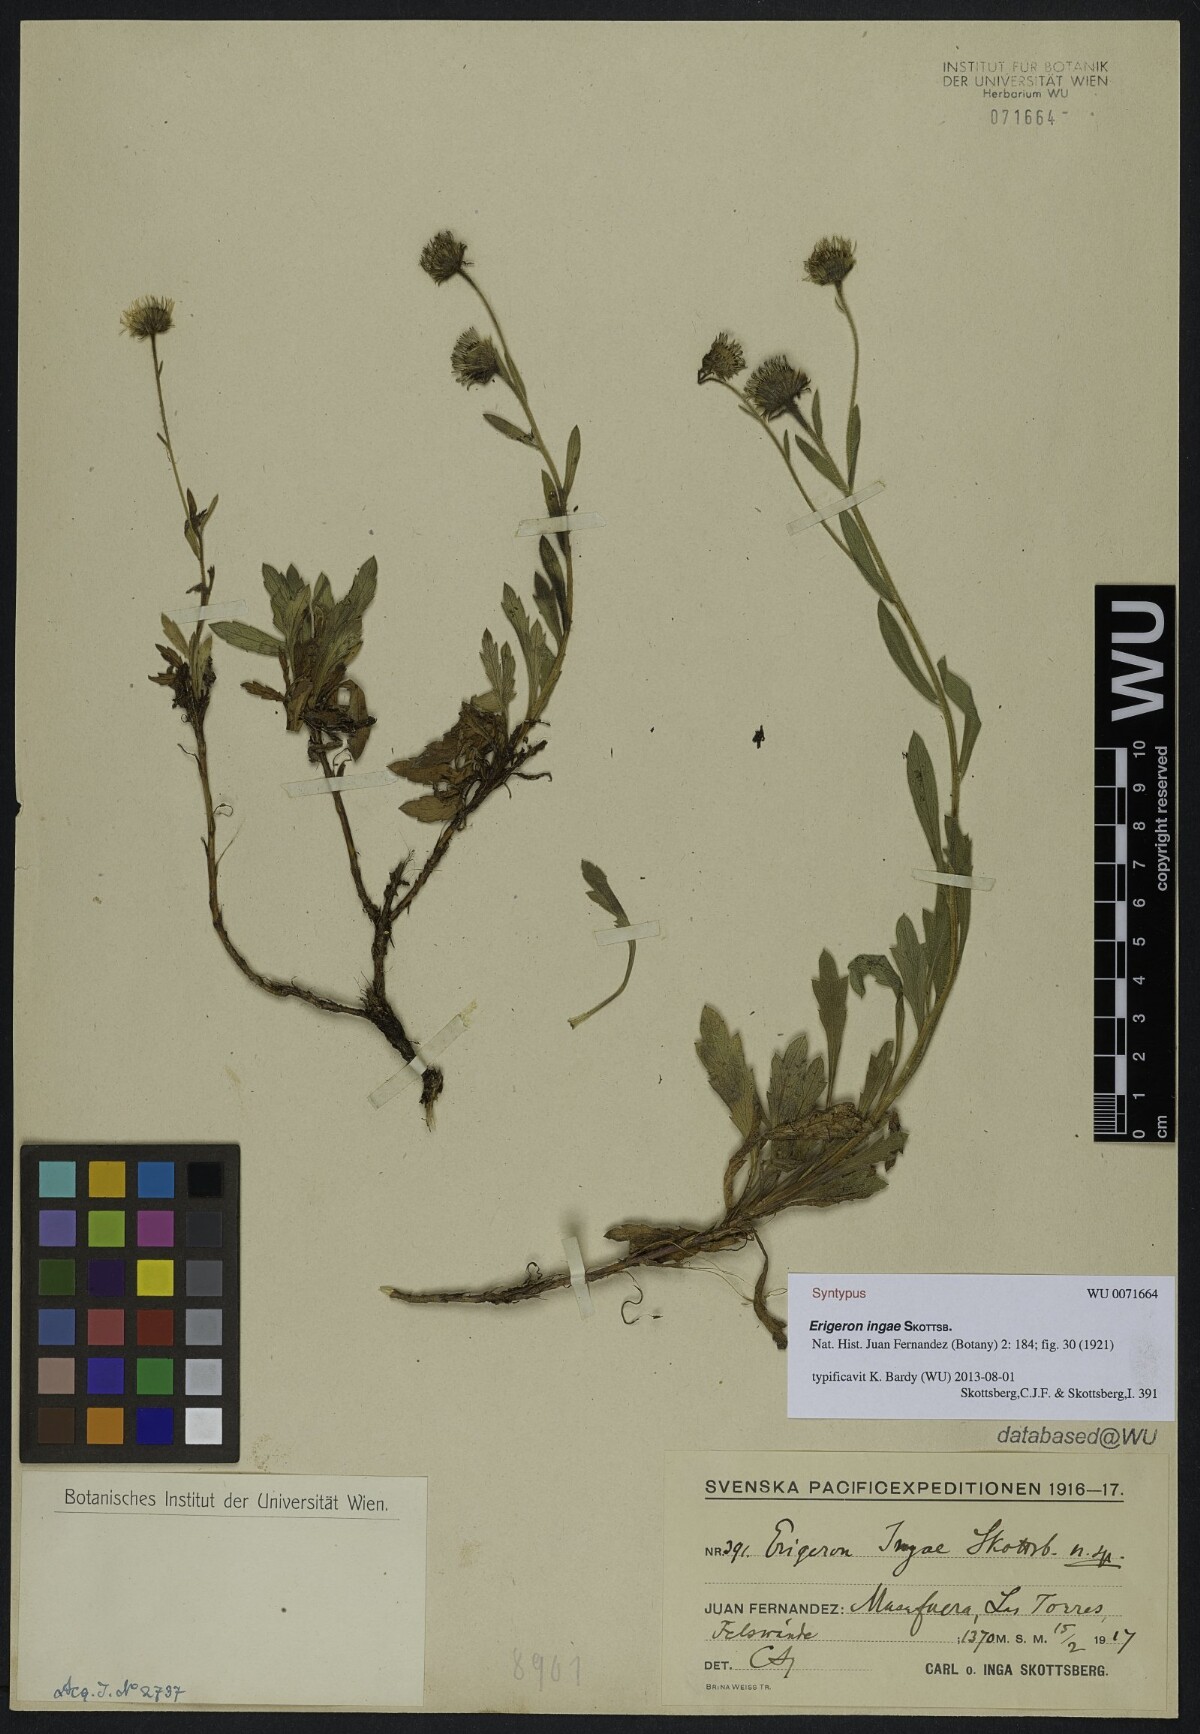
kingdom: Plantae
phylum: Tracheophyta
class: Magnoliopsida
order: Asterales
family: Asteraceae
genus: Erigeron
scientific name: Erigeron ingae
